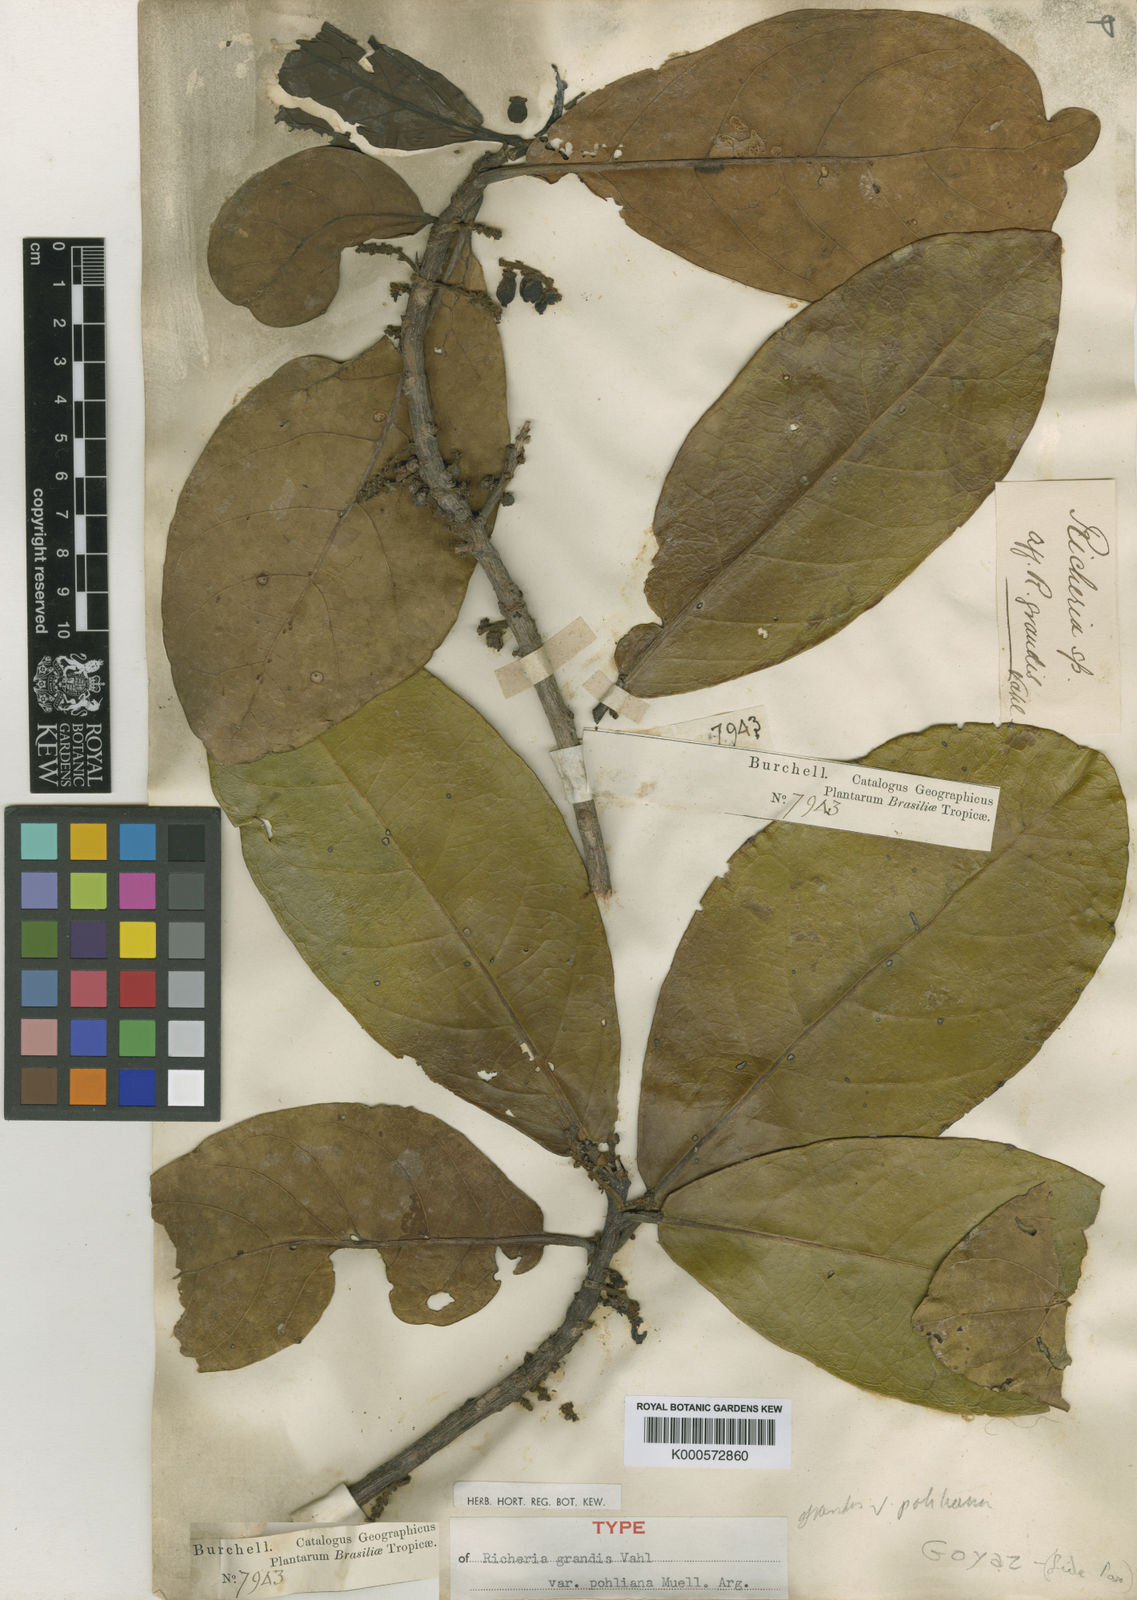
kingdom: Plantae
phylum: Tracheophyta
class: Magnoliopsida
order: Malpighiales
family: Phyllanthaceae
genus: Richeria
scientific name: Richeria
